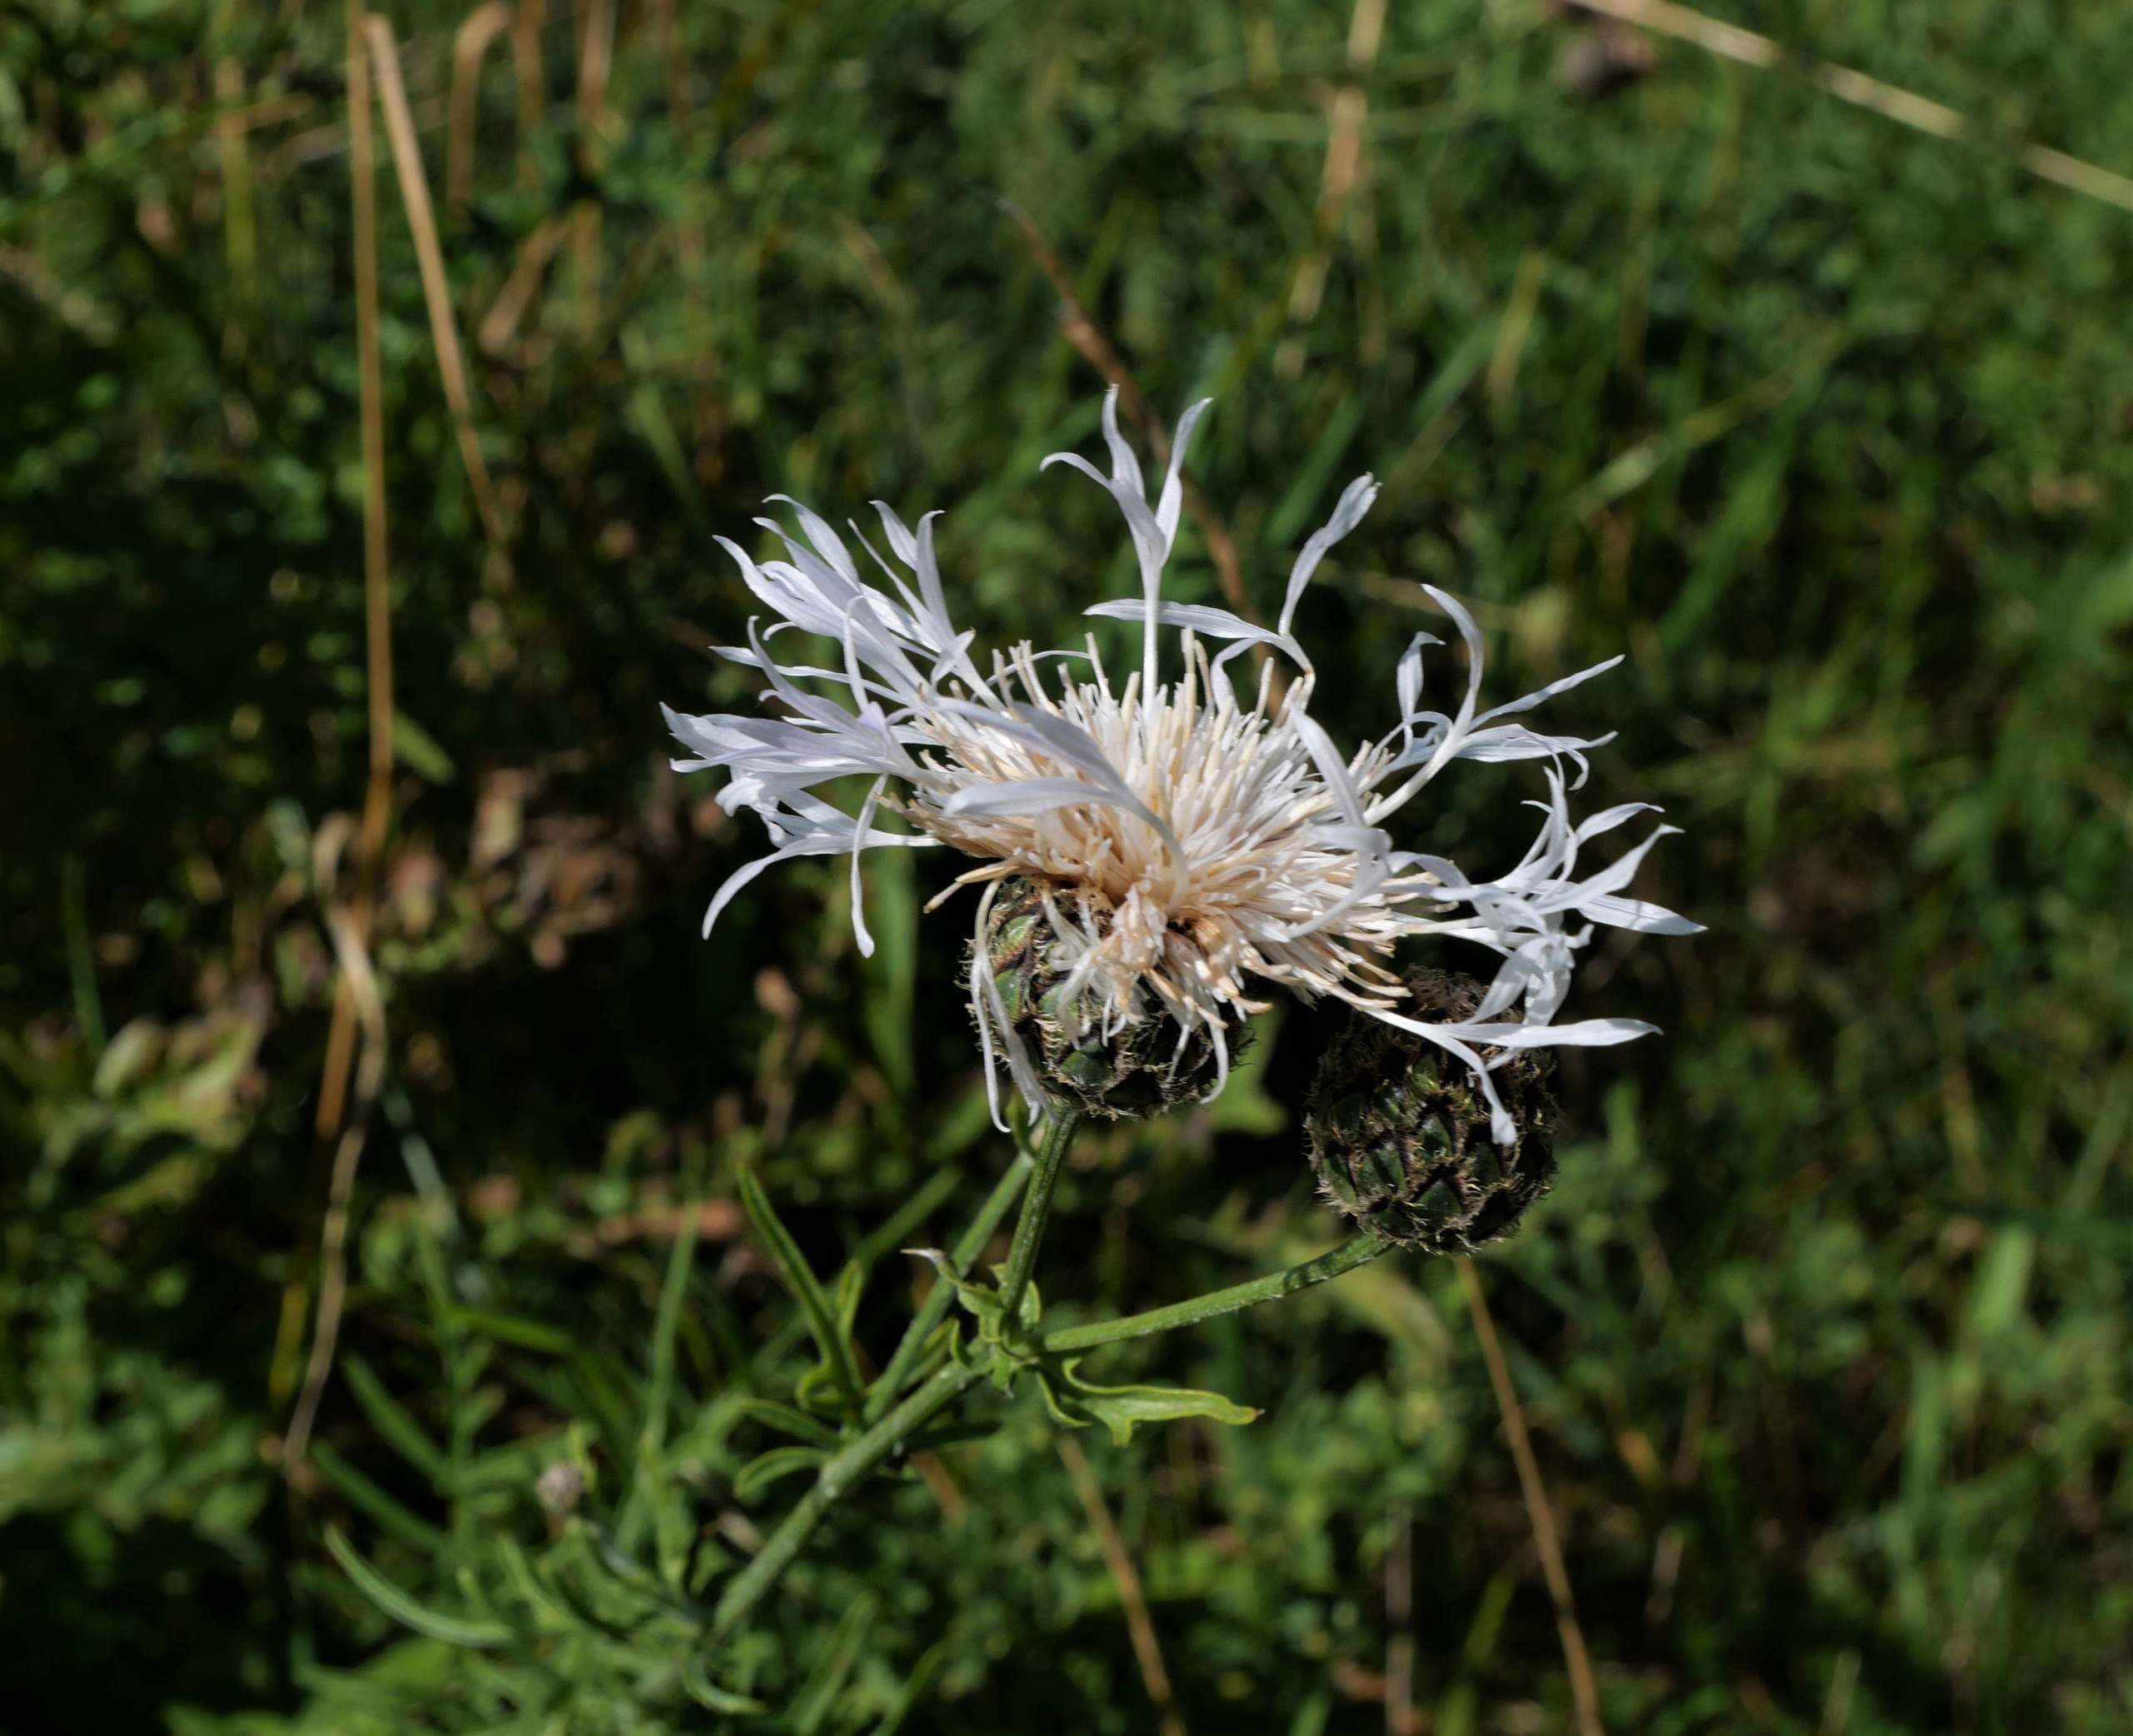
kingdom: Plantae
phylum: Tracheophyta
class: Magnoliopsida
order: Asterales
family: Asteraceae
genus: Centaurea
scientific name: Centaurea scabiosa
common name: Stor knopurt
